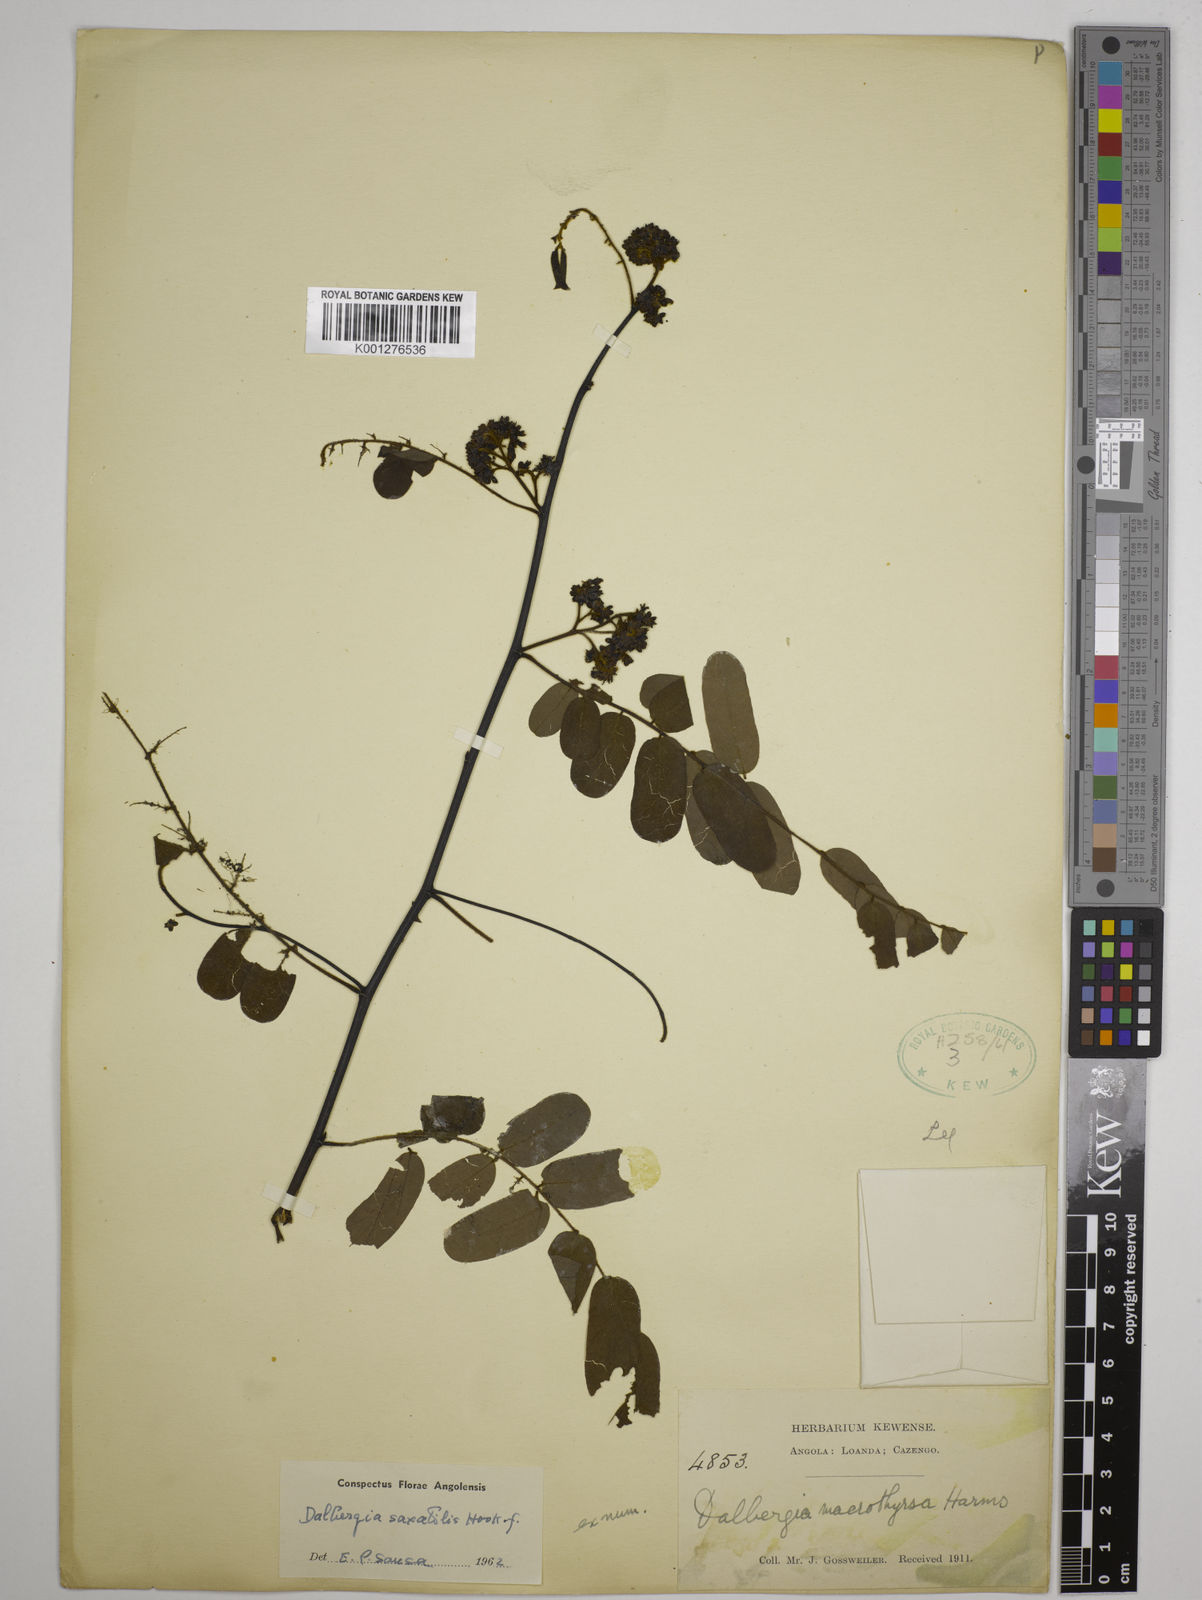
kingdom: Plantae
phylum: Tracheophyta
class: Magnoliopsida
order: Fabales
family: Fabaceae
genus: Dalbergia
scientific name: Dalbergia saxatilis
